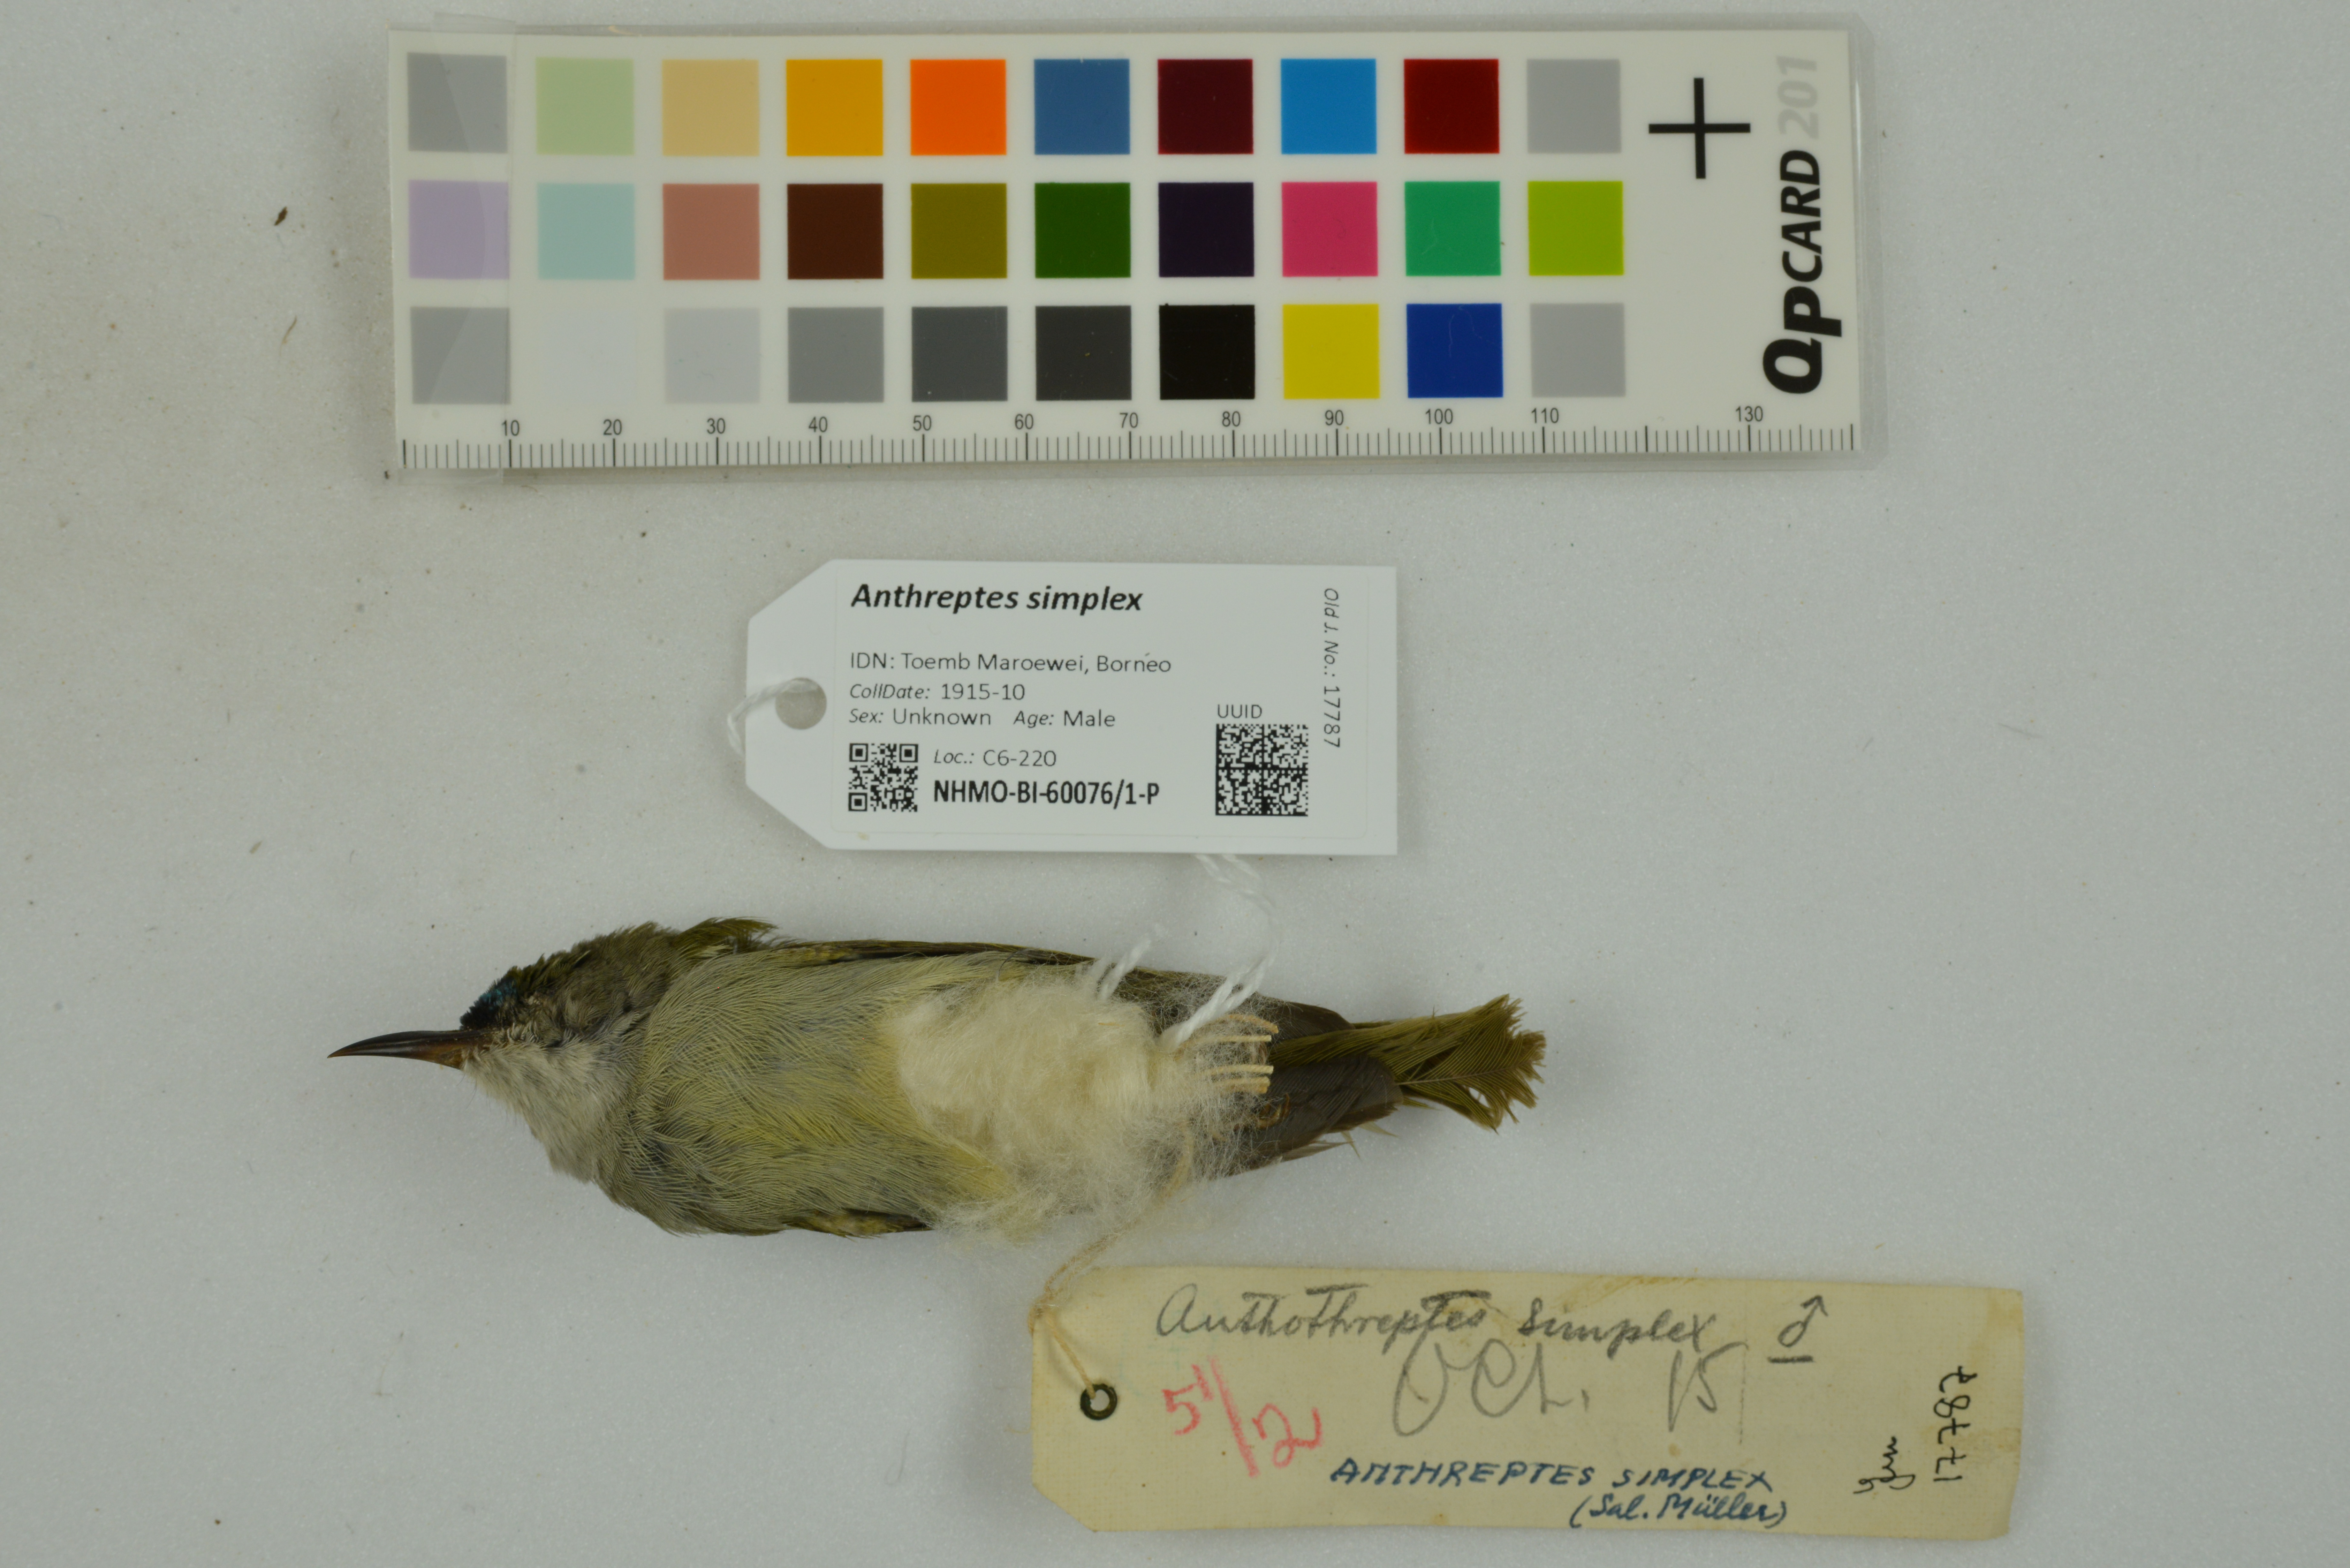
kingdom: Animalia
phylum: Chordata
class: Aves
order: Passeriformes
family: Nectariniidae
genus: Anthreptes
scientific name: Anthreptes simplex
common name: Plain sunbird
